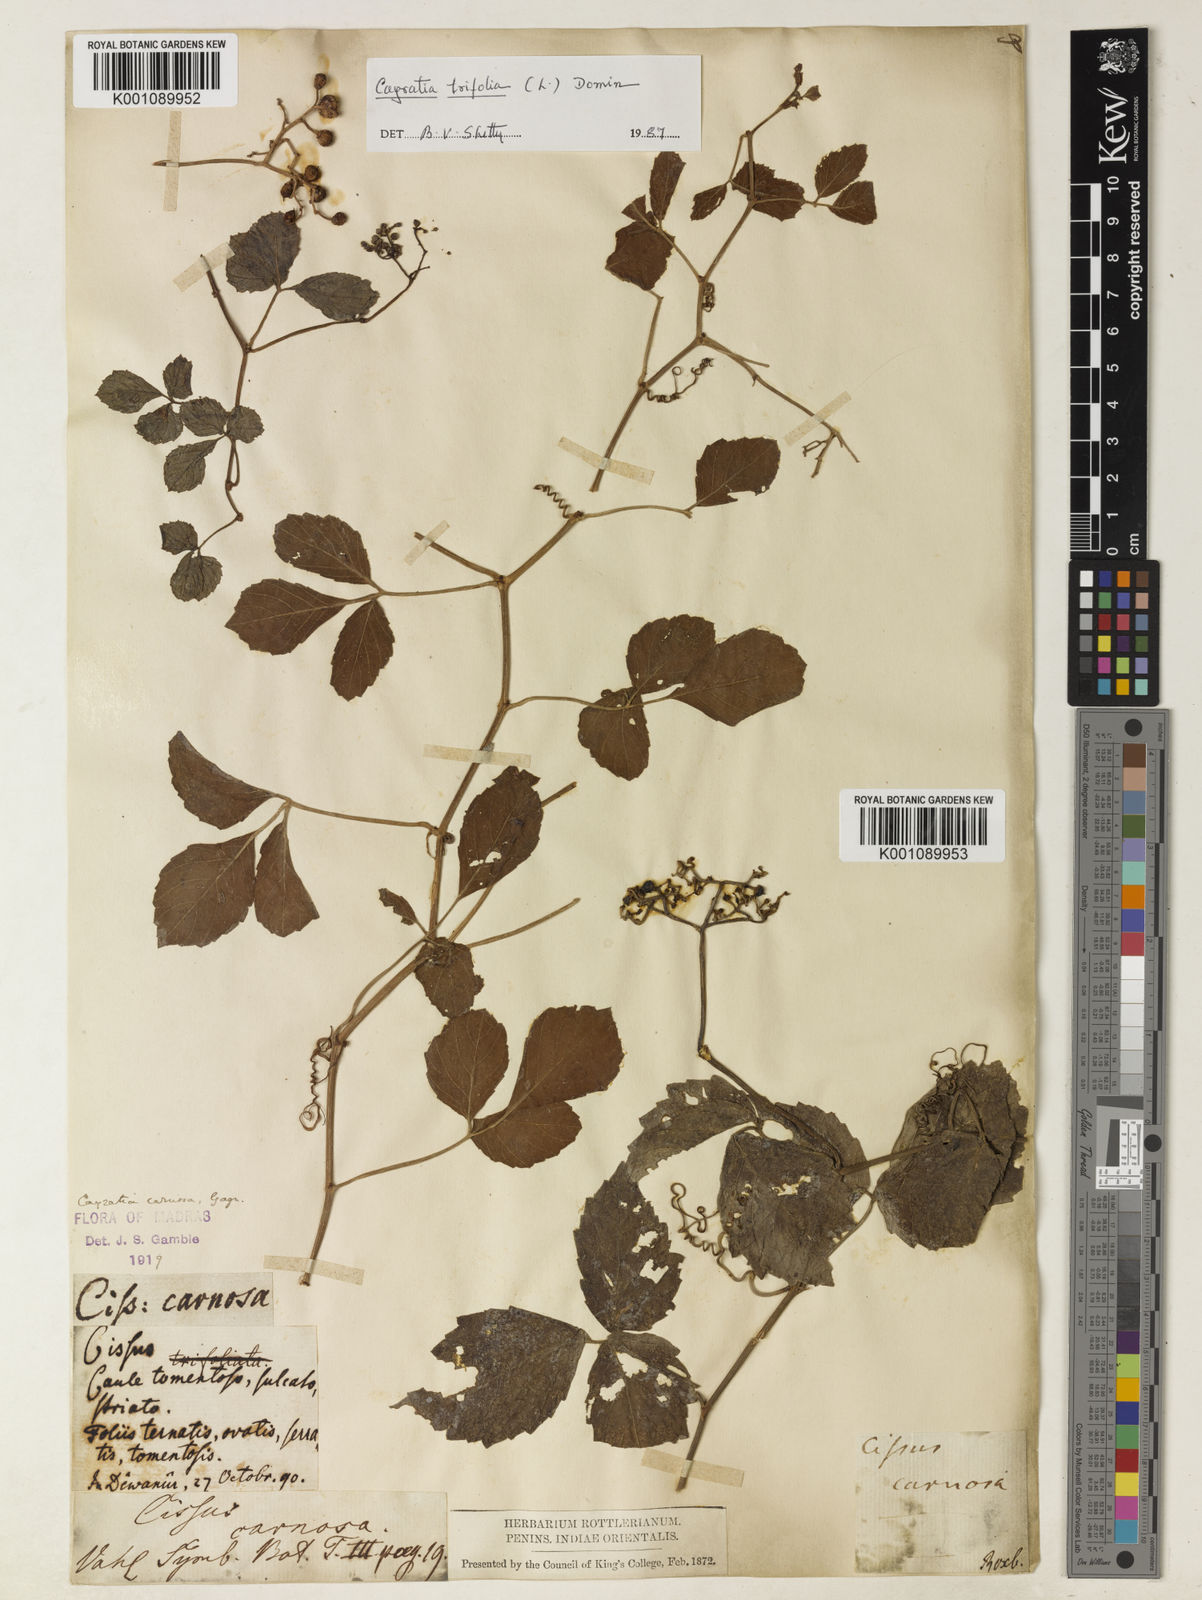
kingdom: Plantae
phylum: Tracheophyta
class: Magnoliopsida
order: Vitales
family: Vitaceae
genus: Causonis
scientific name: Causonis trifolia
